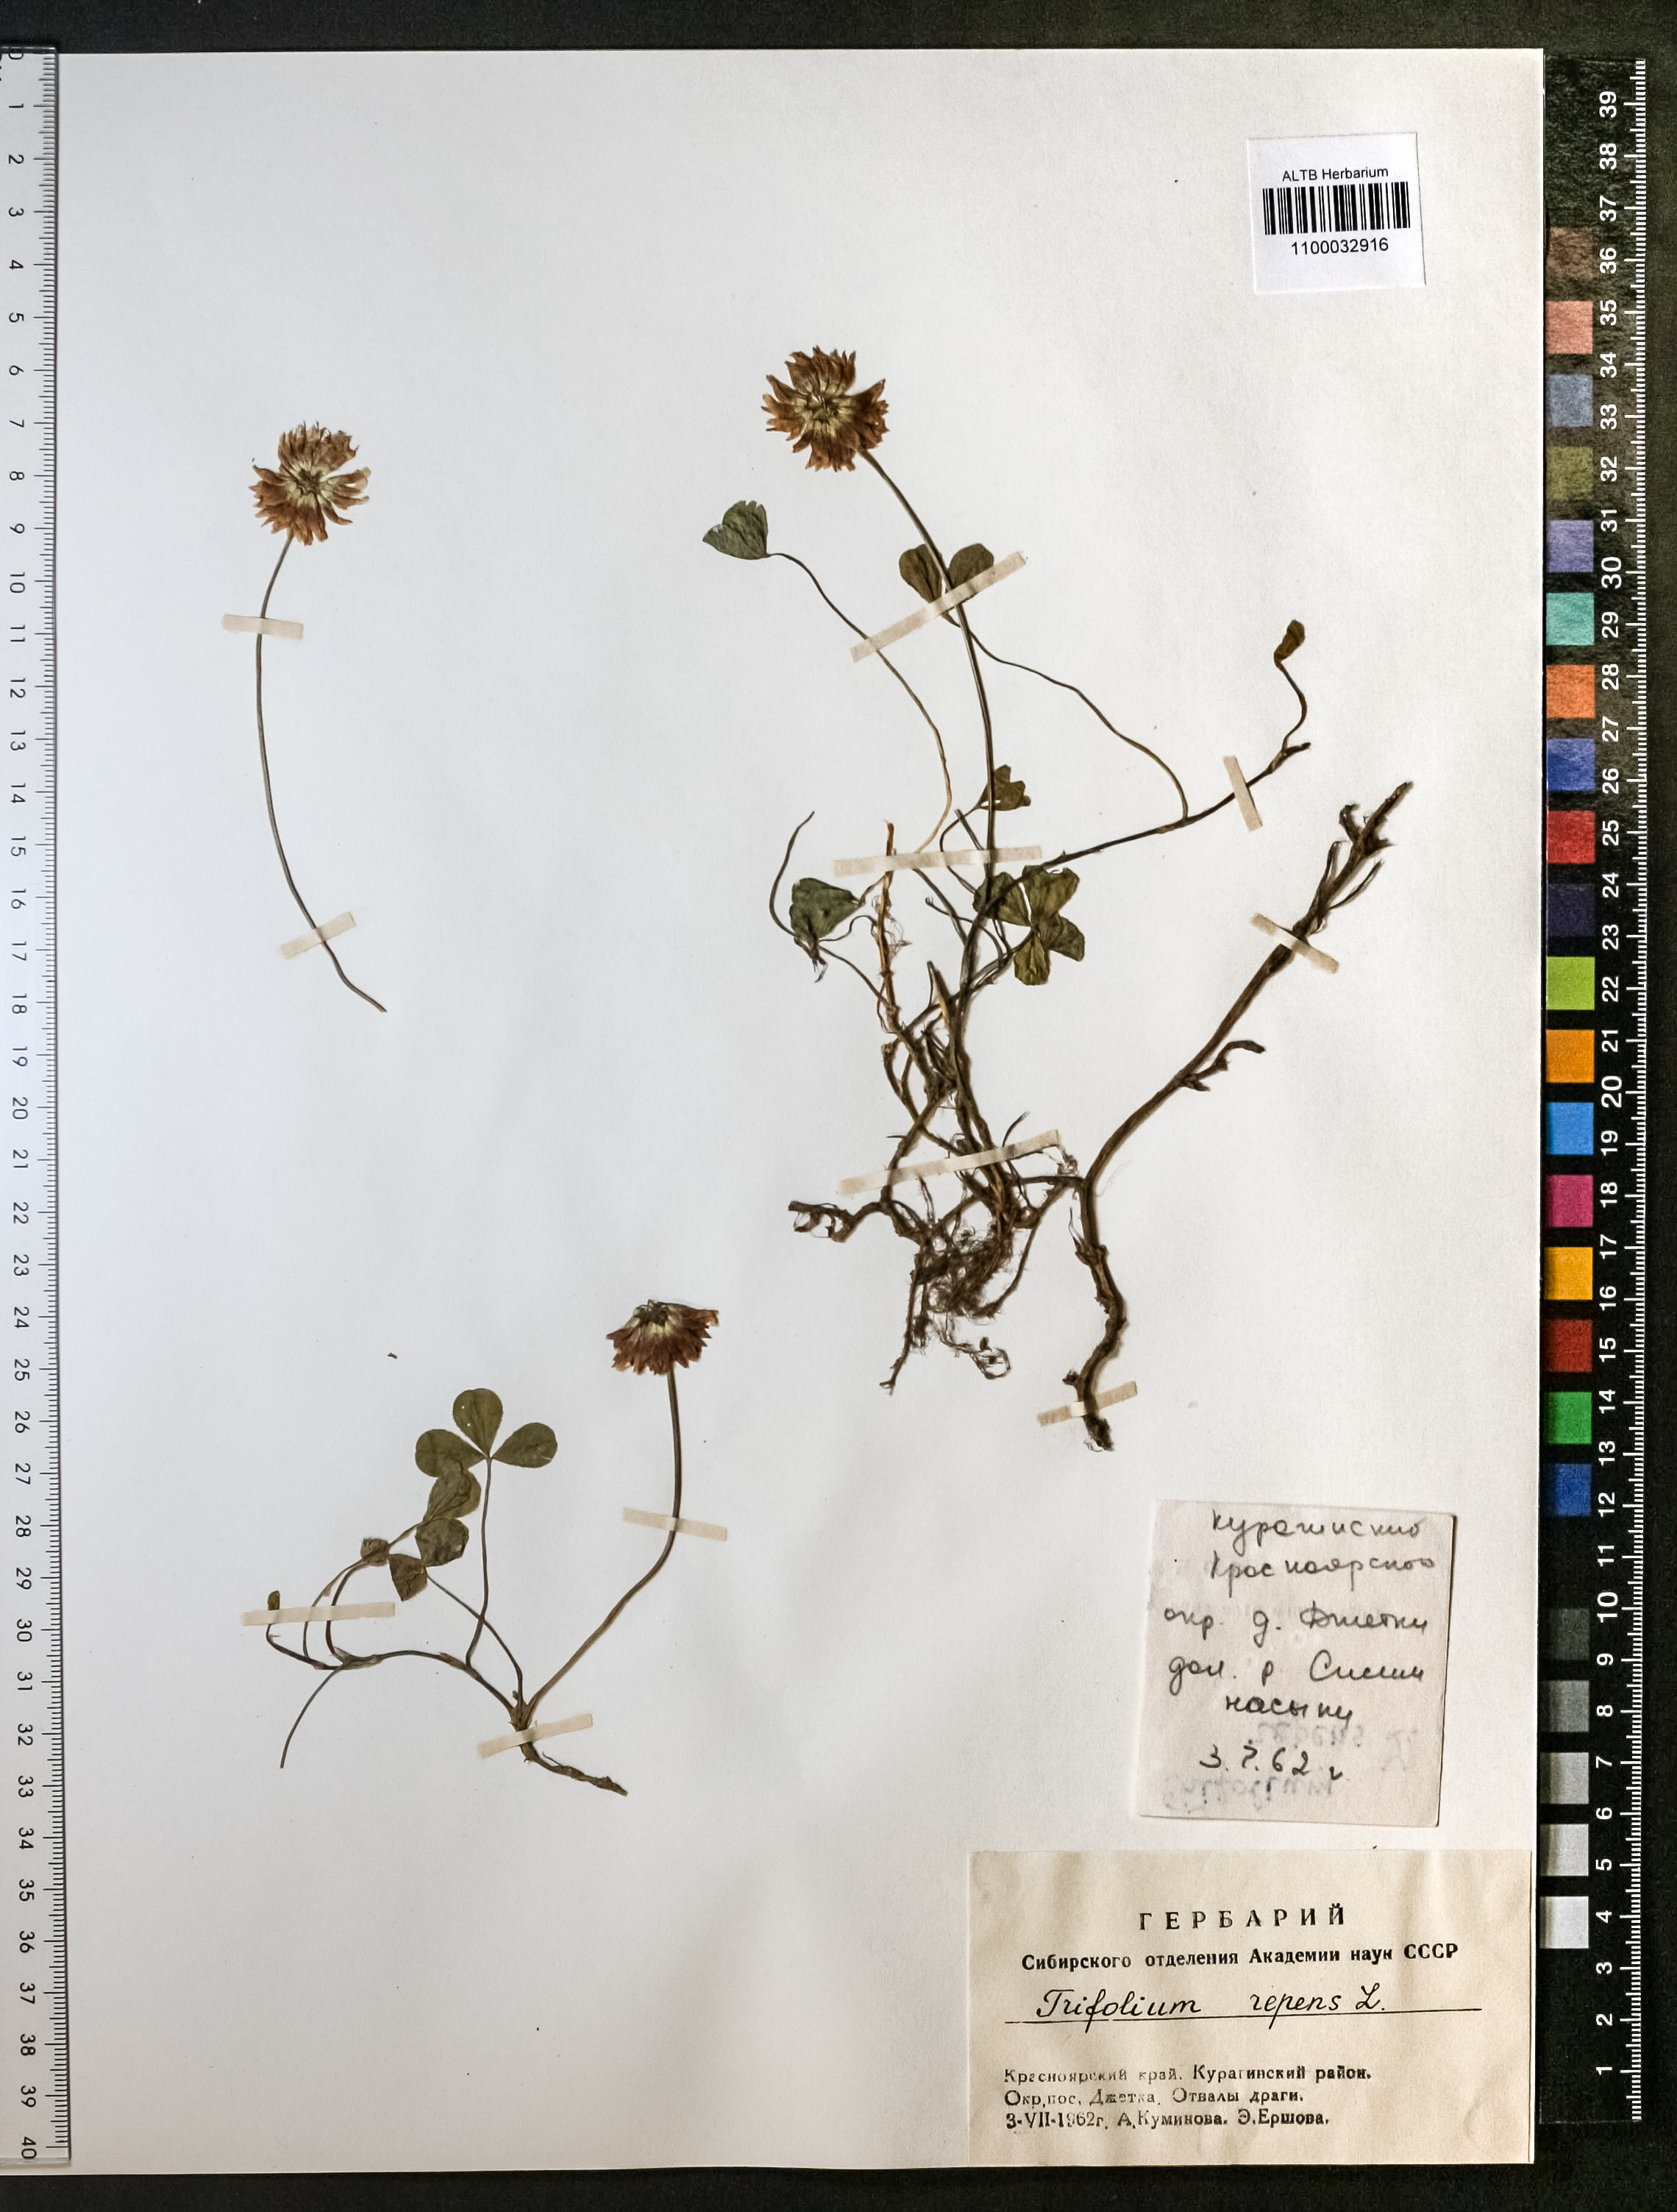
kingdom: Plantae
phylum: Tracheophyta
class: Magnoliopsida
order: Fabales
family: Fabaceae
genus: Trifolium
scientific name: Trifolium repens
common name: White clover
